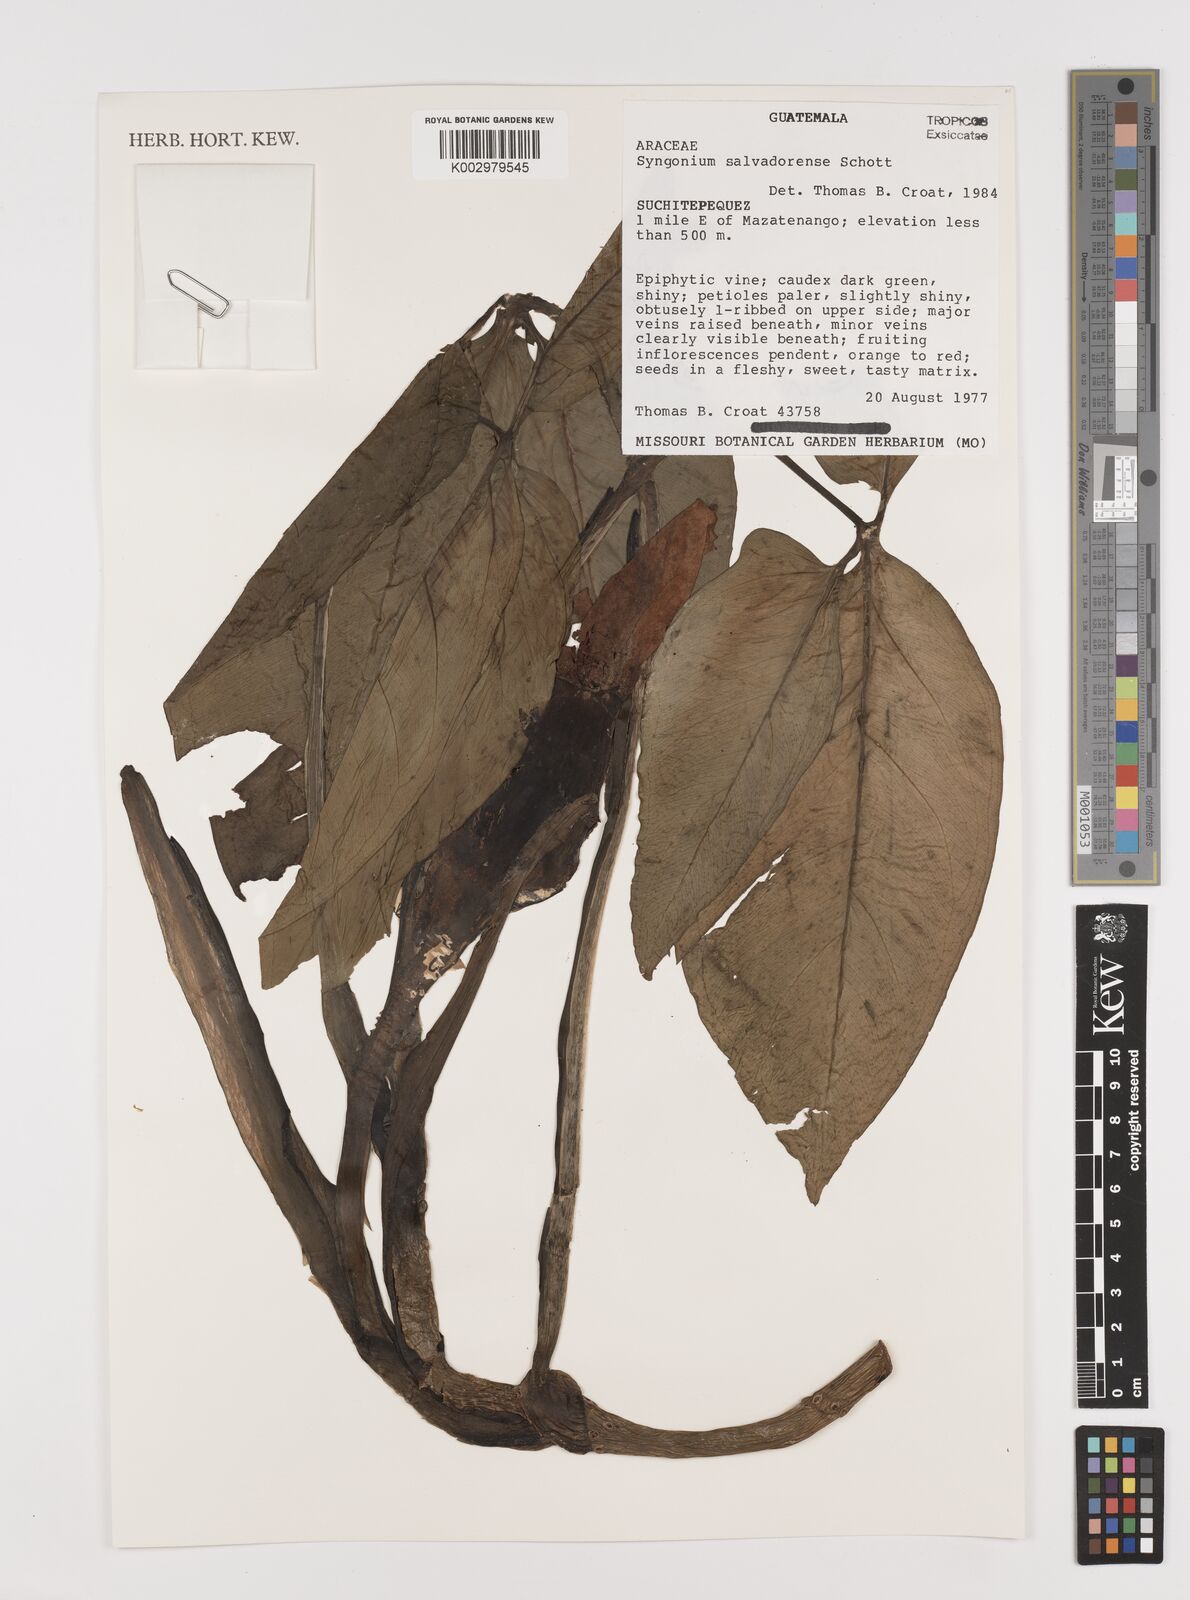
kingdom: Plantae
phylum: Tracheophyta
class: Liliopsida
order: Alismatales
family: Araceae
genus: Syngonium
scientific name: Syngonium salvadorense
